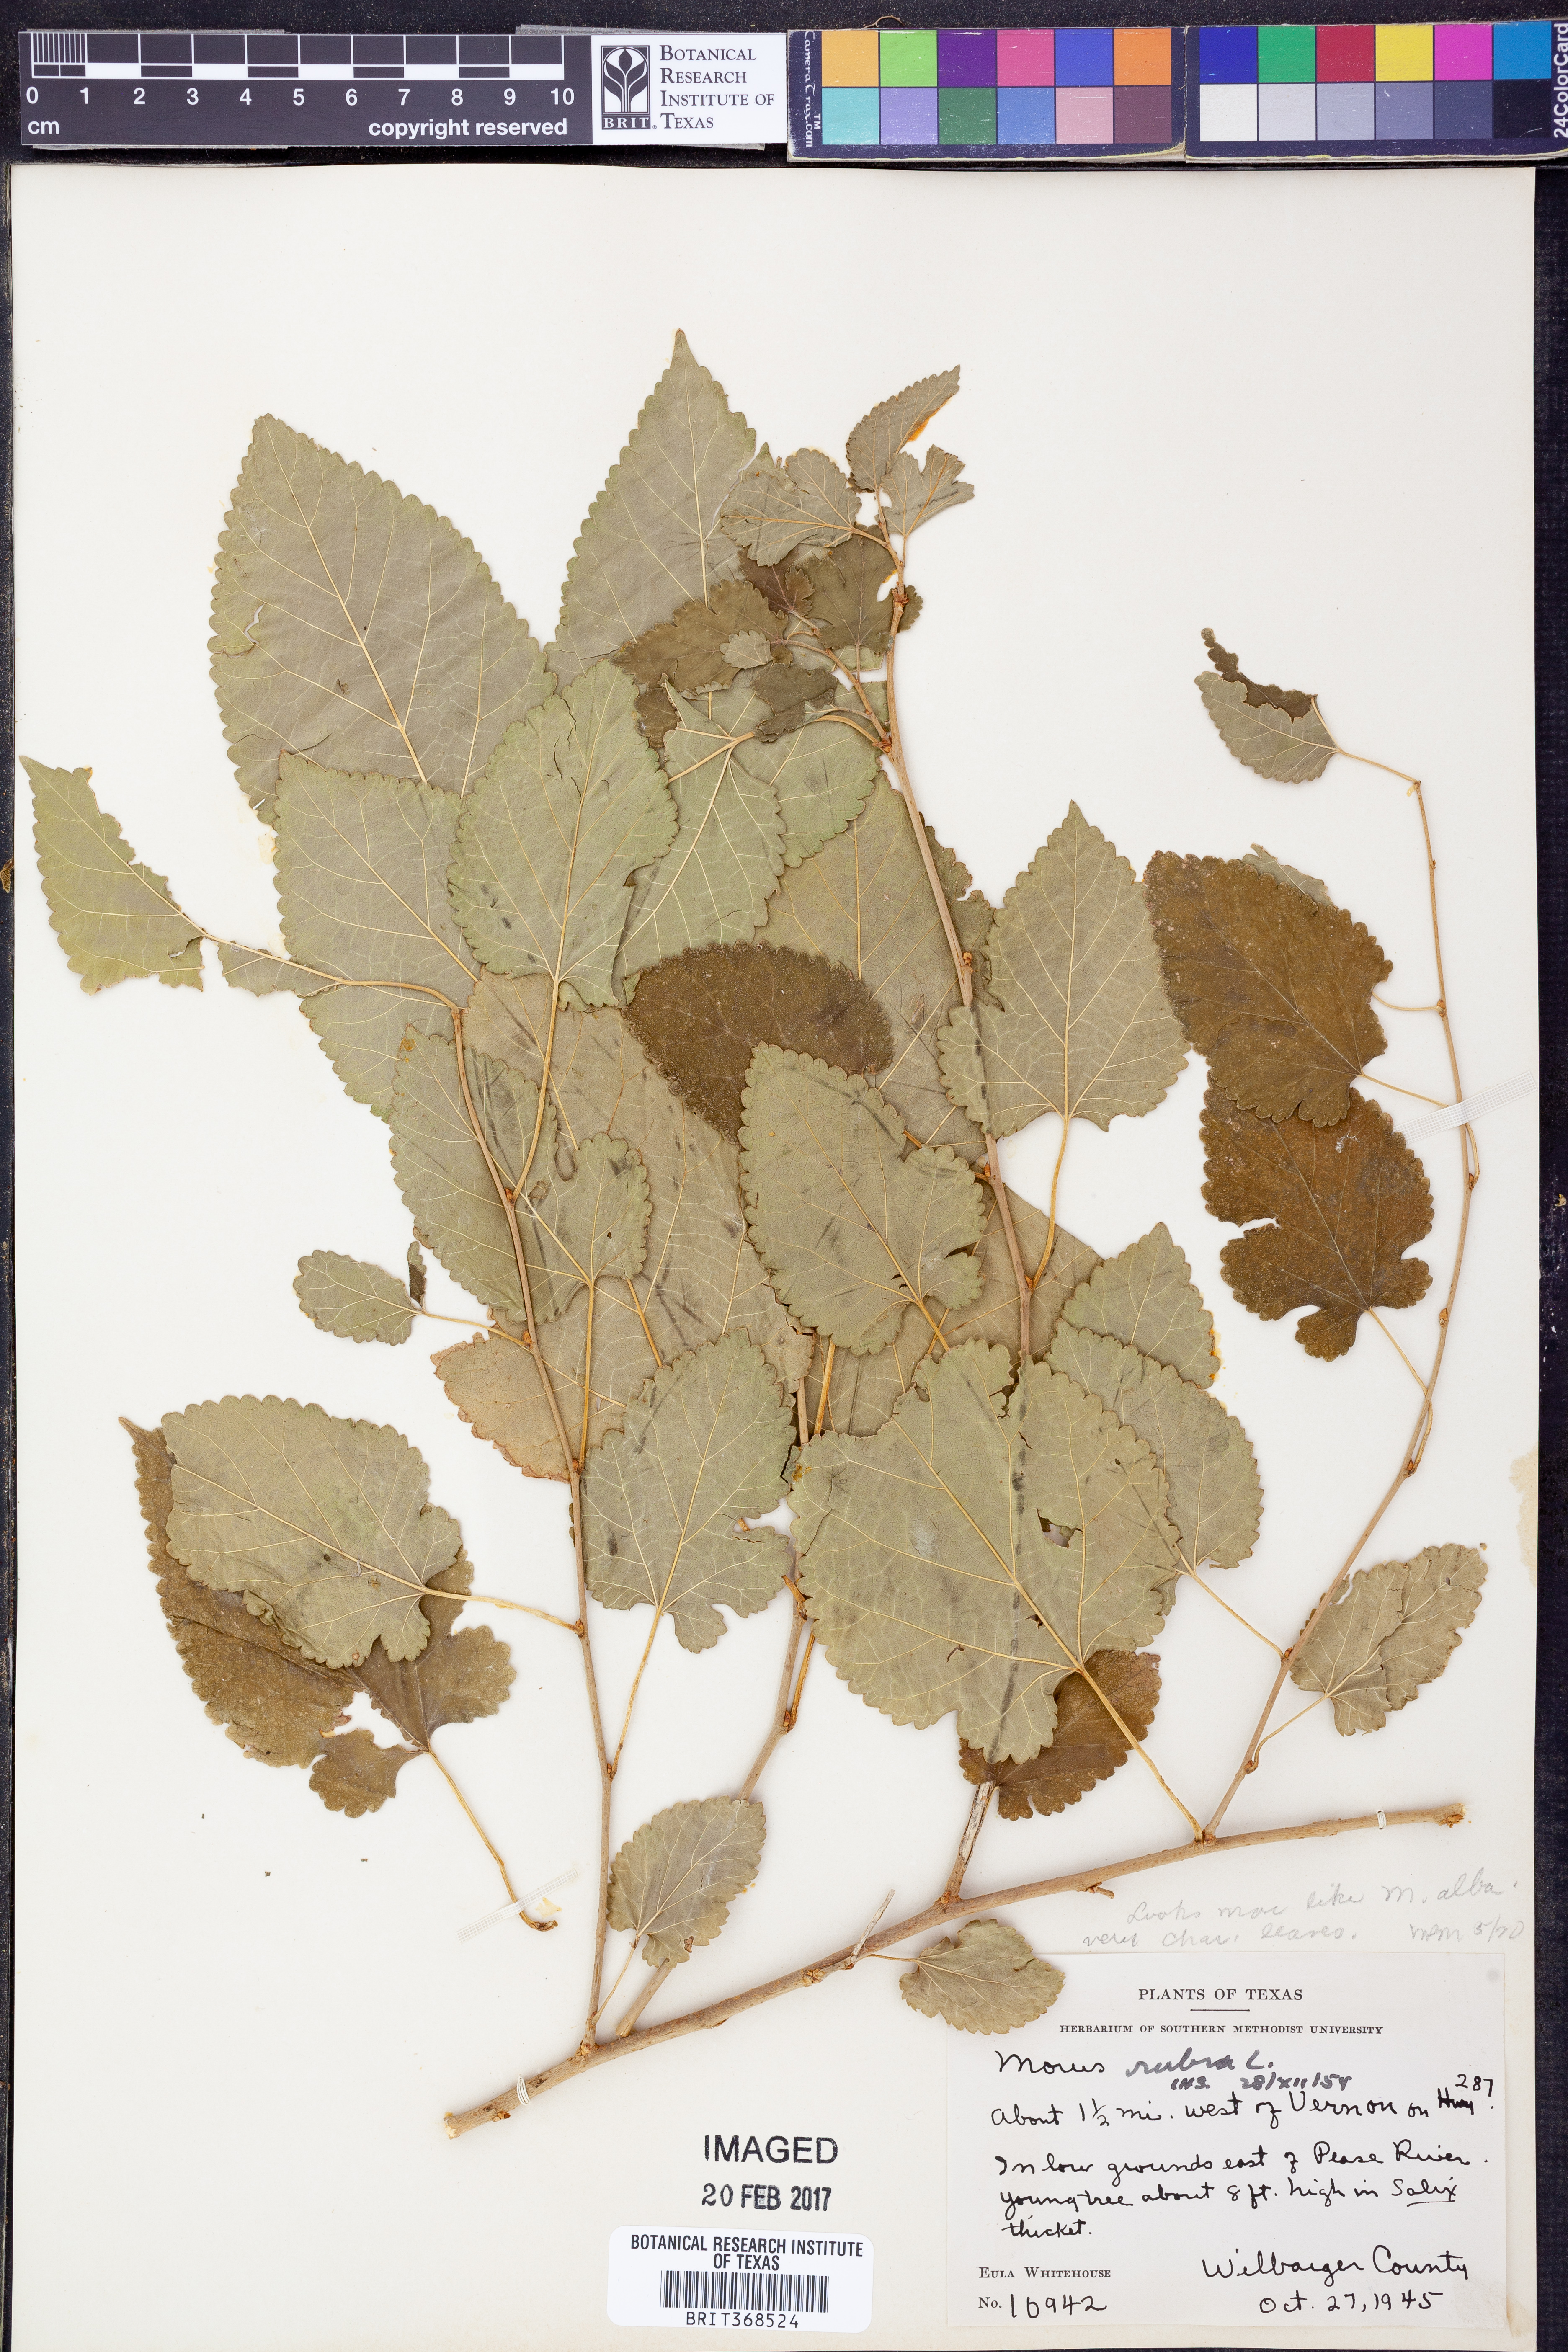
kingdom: Plantae
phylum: Tracheophyta
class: Magnoliopsida
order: Rosales
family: Moraceae
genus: Morus
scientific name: Morus alba
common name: White mulberry
